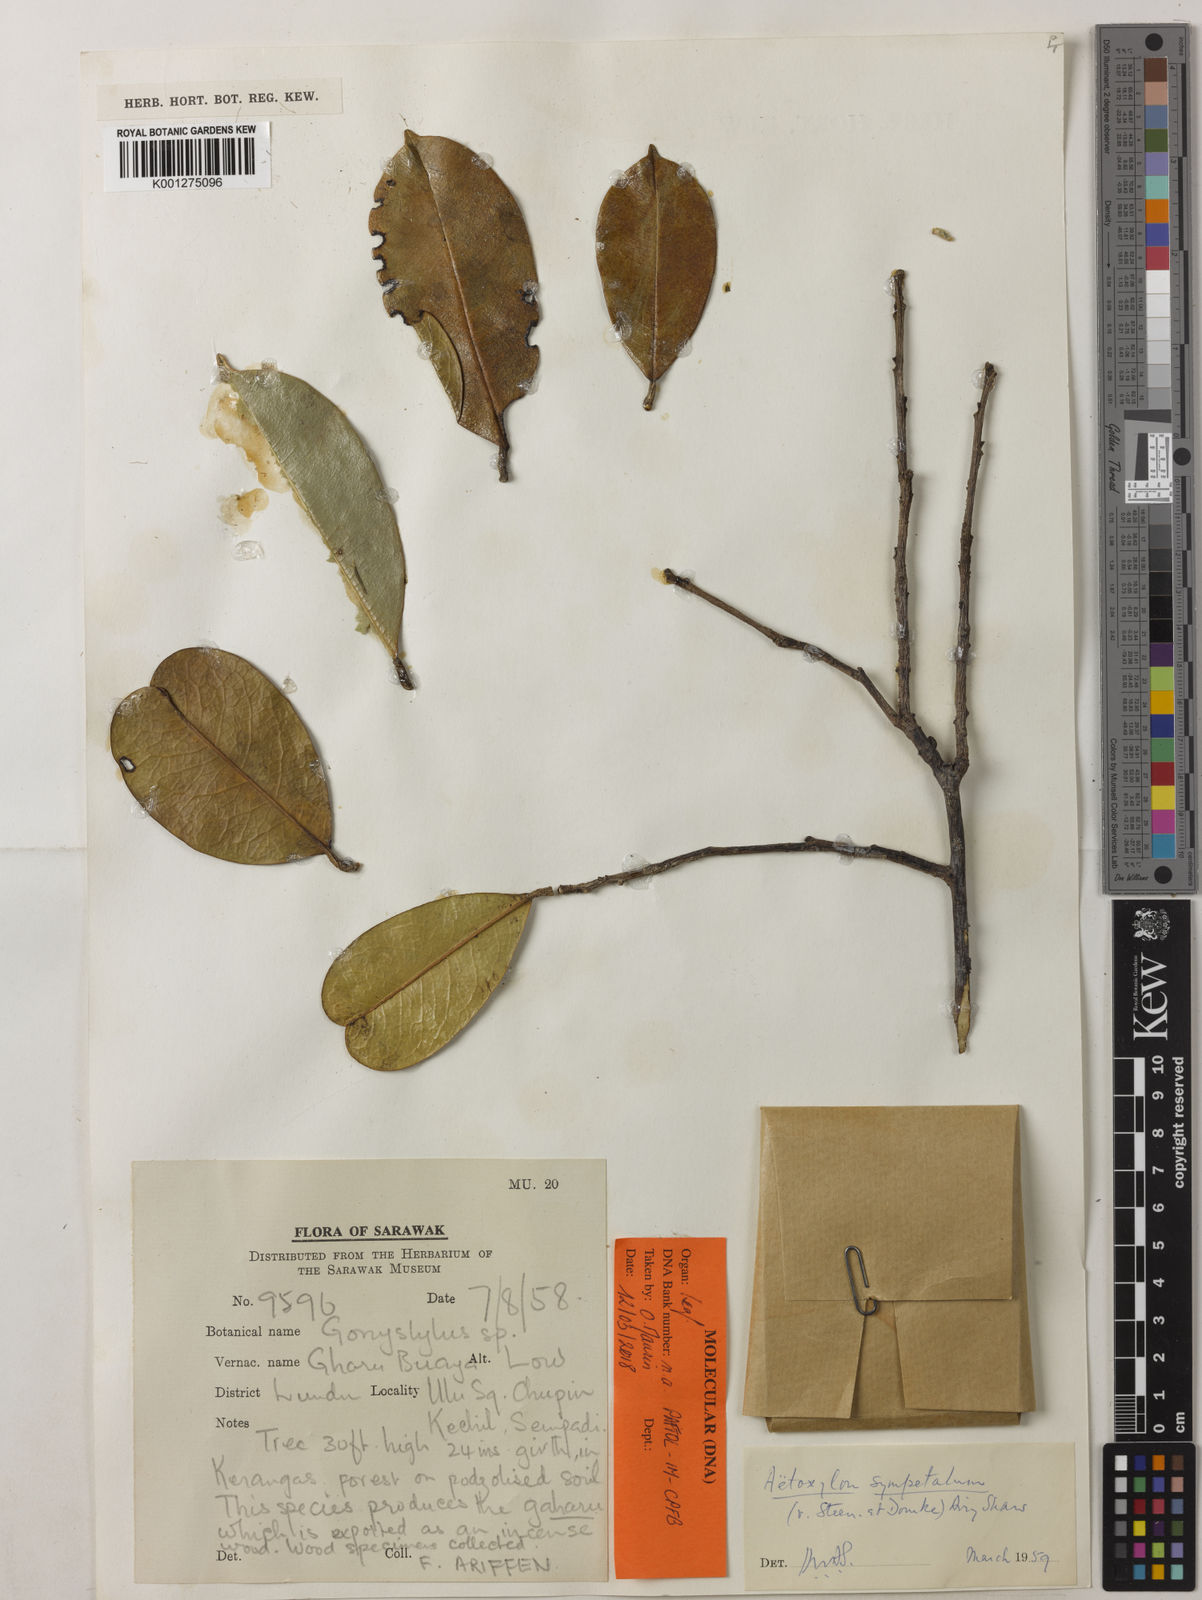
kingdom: Plantae
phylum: Tracheophyta
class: Magnoliopsida
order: Malvales
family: Thymelaeaceae
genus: Aetoxylon
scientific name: Aetoxylon sympetalum
